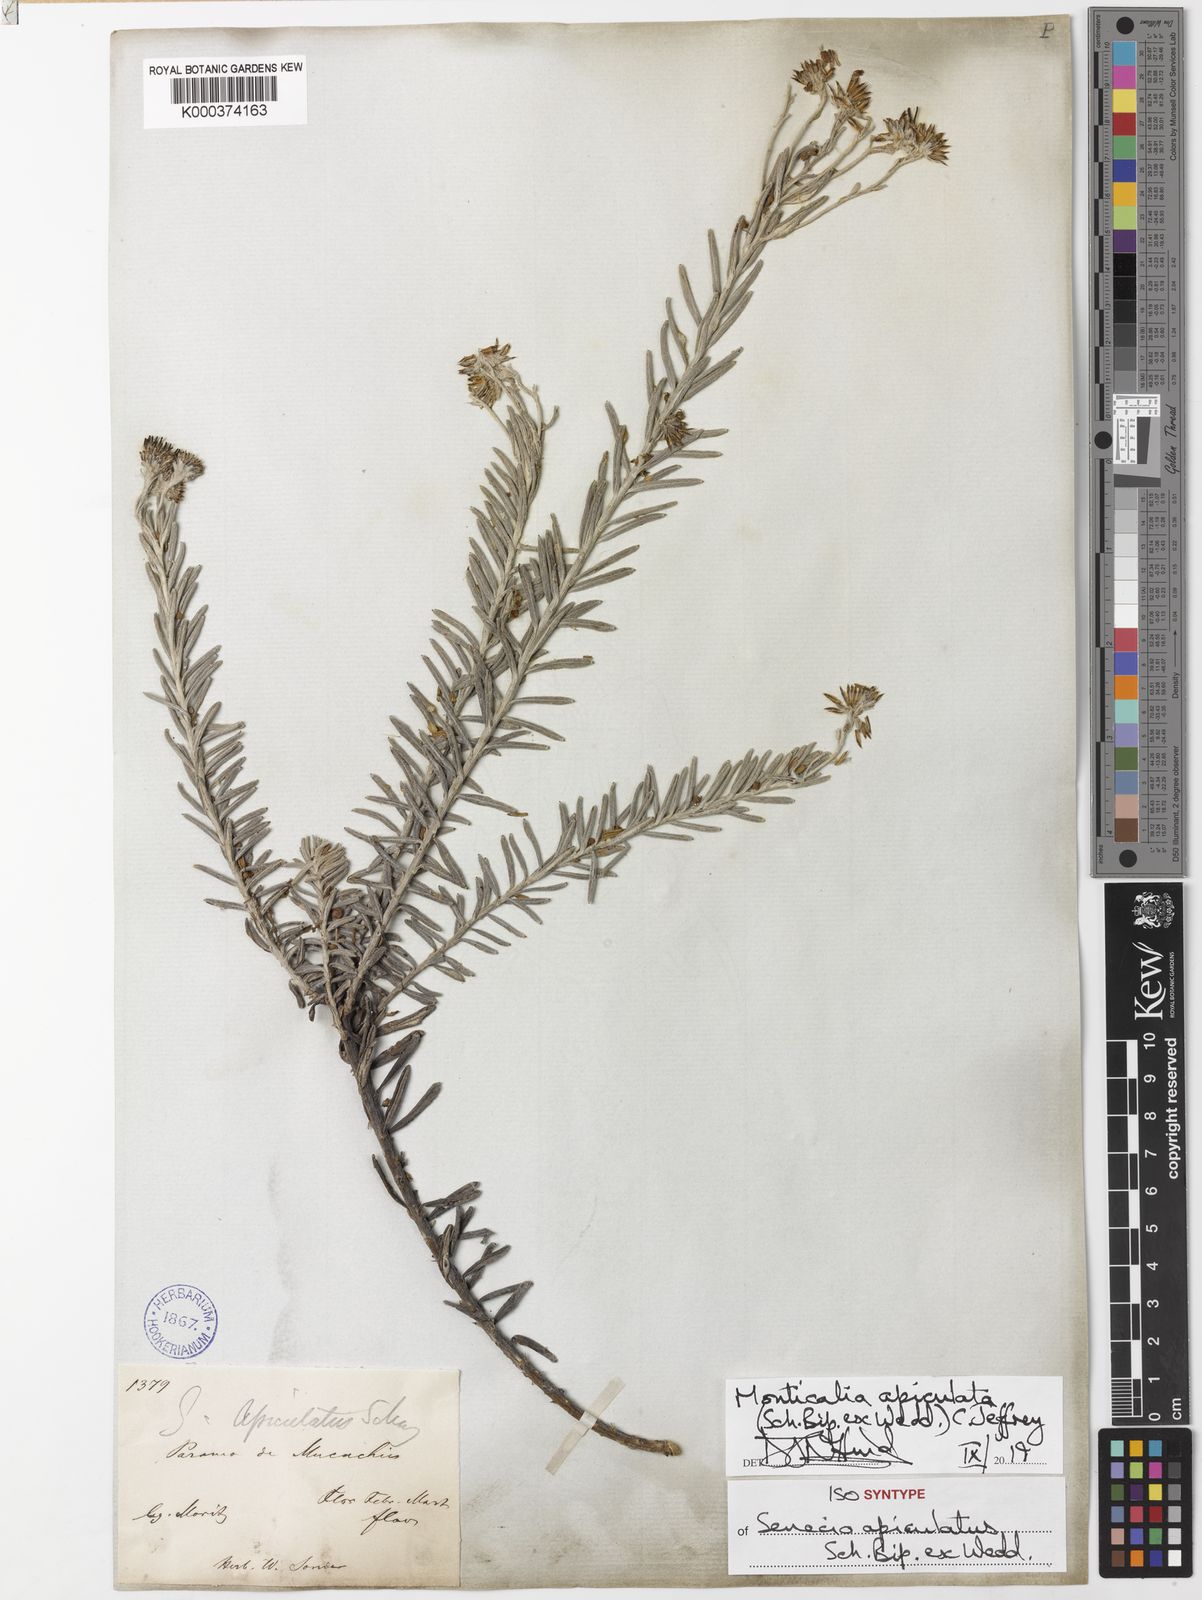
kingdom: Plantae
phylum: Tracheophyta
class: Magnoliopsida
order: Asterales
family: Asteraceae
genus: Monticalia
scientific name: Monticalia apiculata
